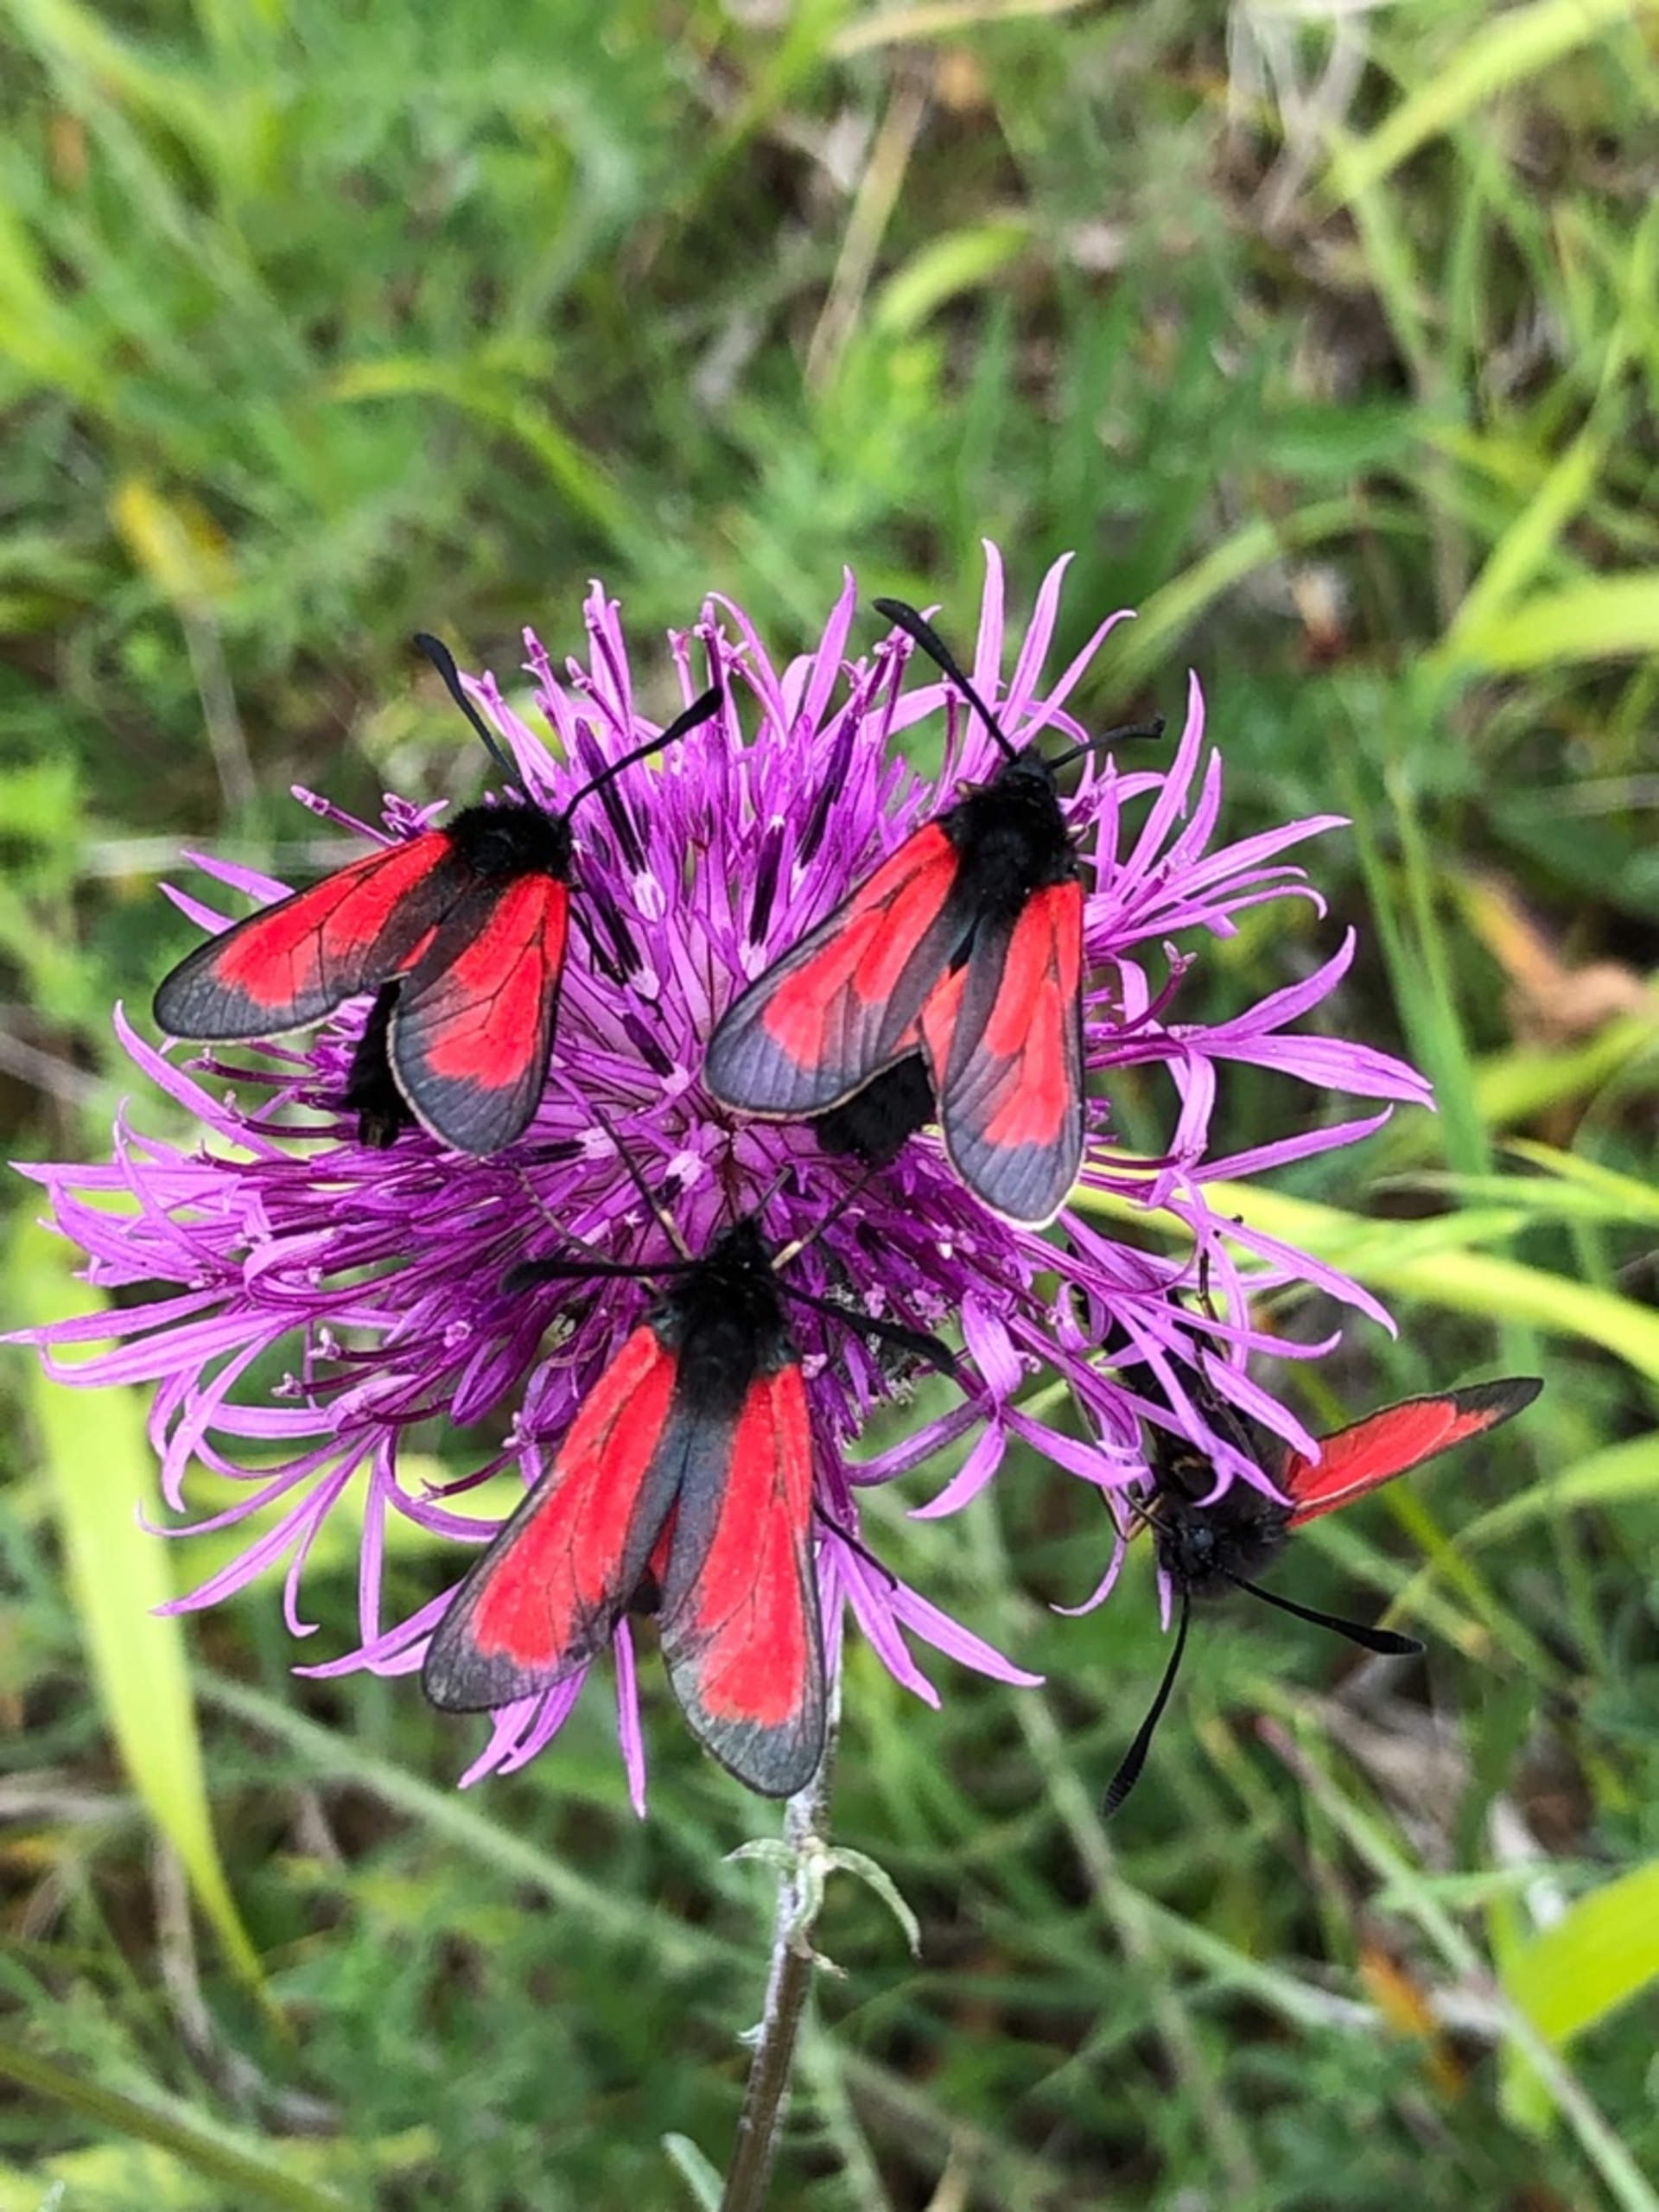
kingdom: Animalia
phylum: Arthropoda
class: Insecta
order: Lepidoptera
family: Zygaenidae
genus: Zygaena
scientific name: Zygaena purpuralis
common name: Timiankøllesværmer
